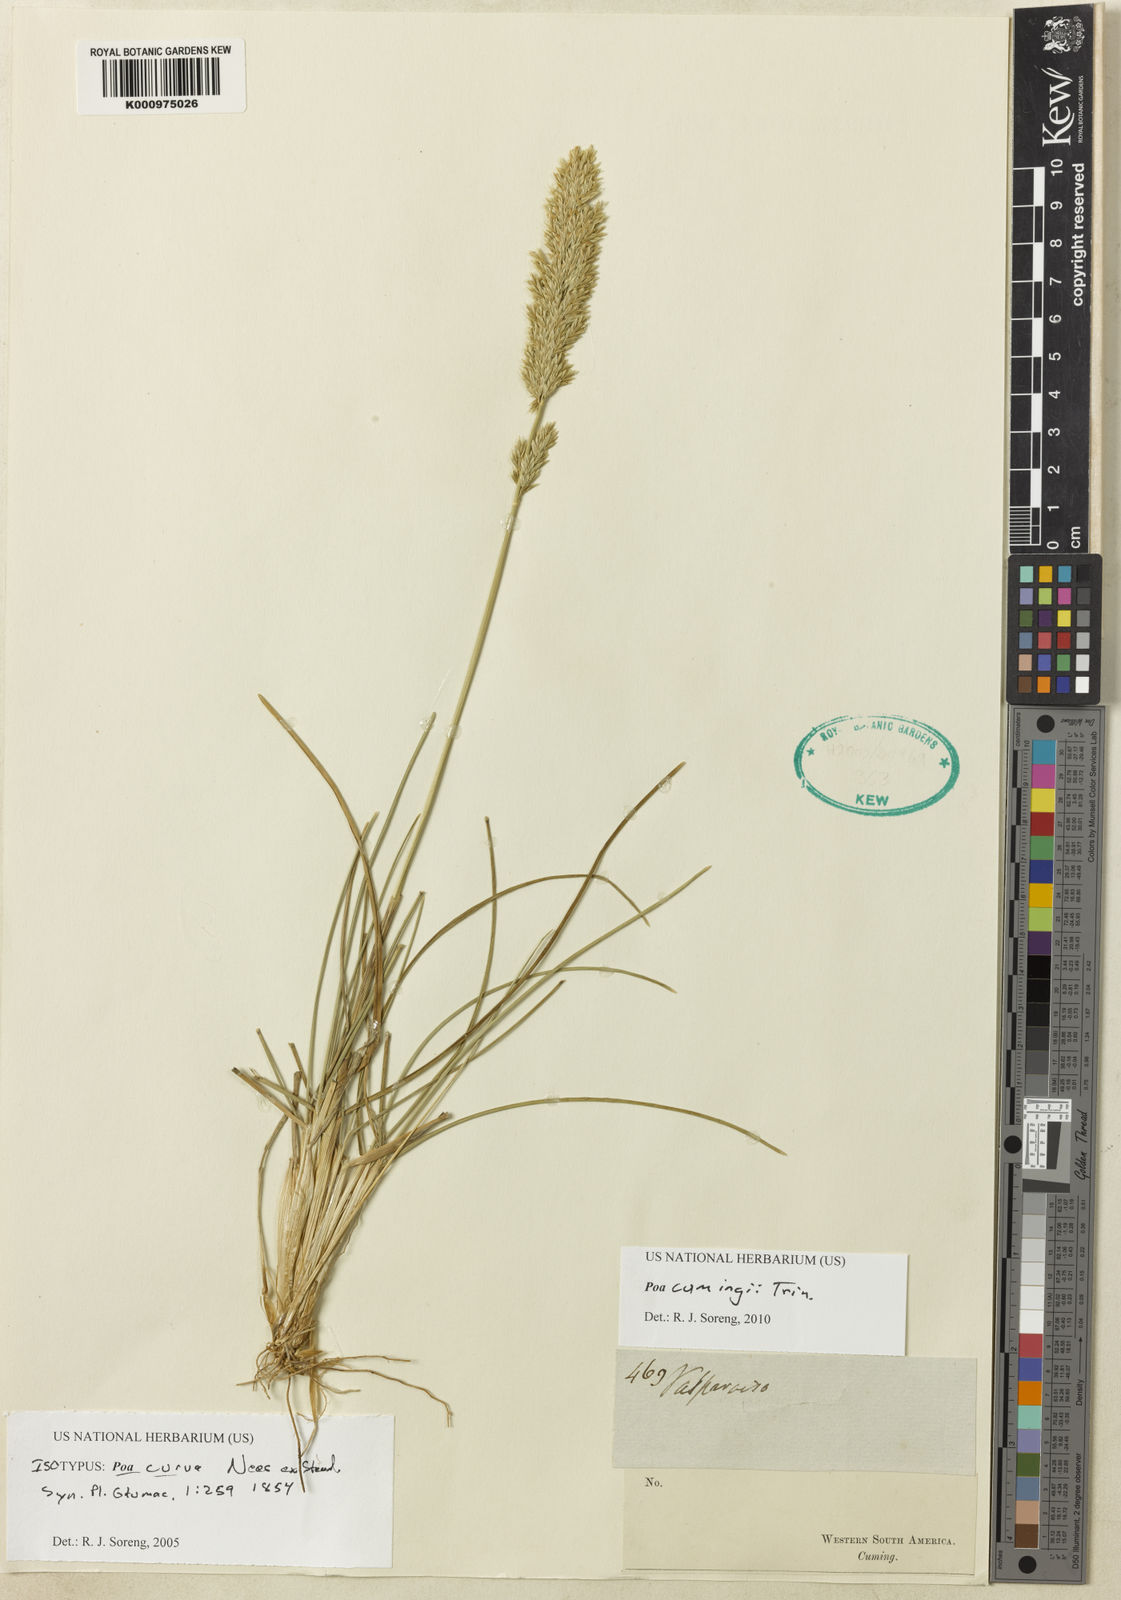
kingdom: Plantae
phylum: Tracheophyta
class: Liliopsida
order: Poales
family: Poaceae
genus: Poa
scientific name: Poa cumingii
